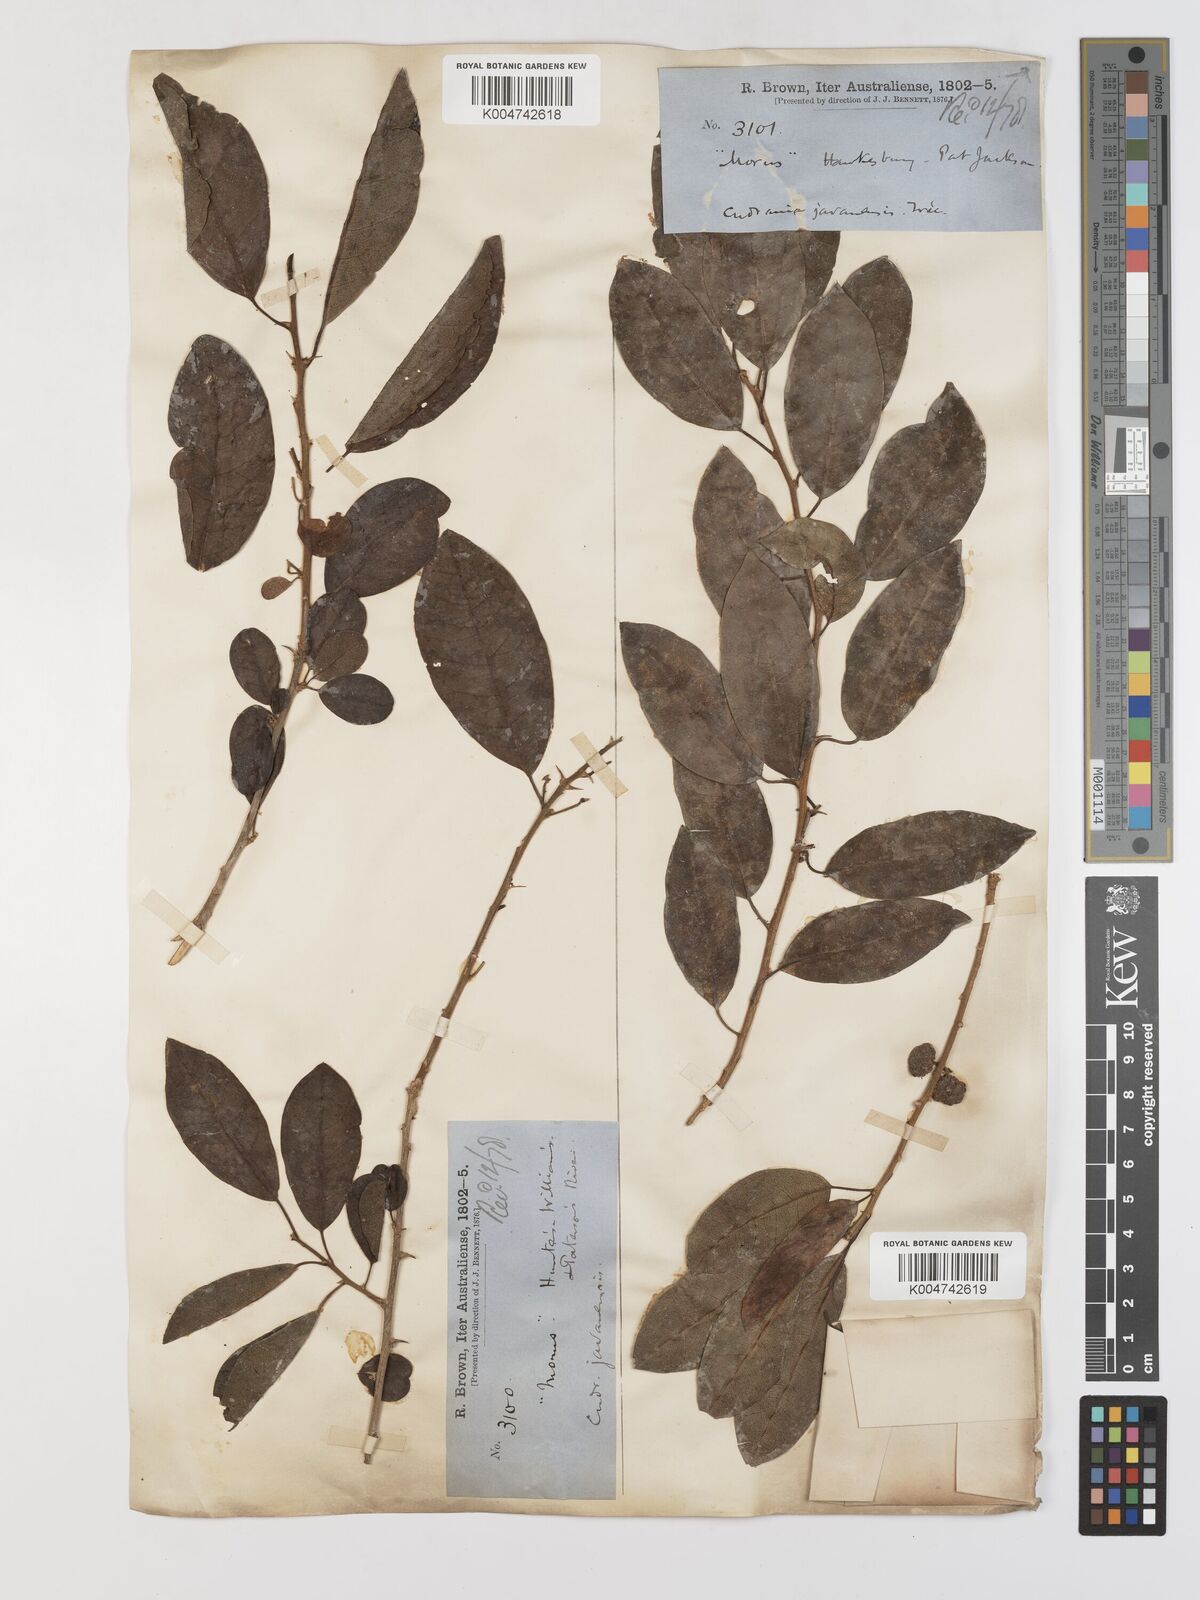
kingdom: Plantae
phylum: Tracheophyta
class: Magnoliopsida
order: Rosales
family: Moraceae
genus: Maclura
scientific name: Maclura cochinchinensis
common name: Cockspurthorn
